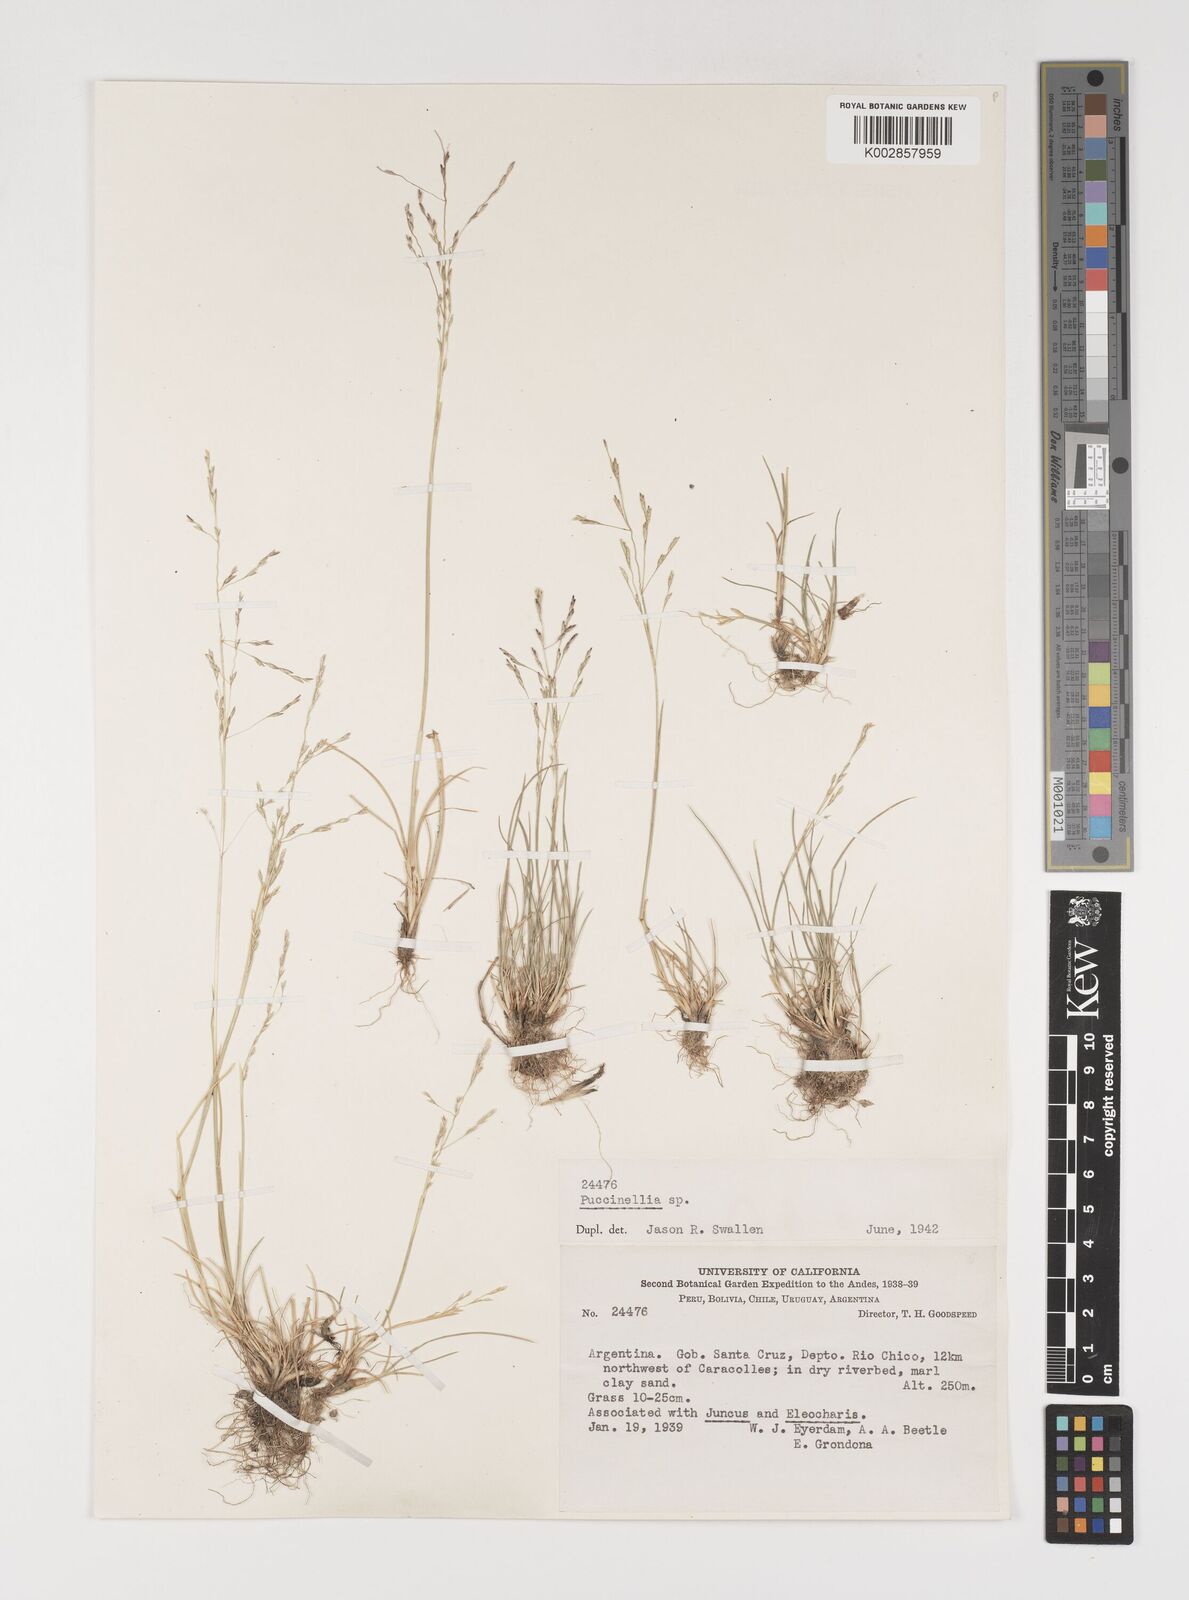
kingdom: Plantae
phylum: Tracheophyta
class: Liliopsida
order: Poales
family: Poaceae
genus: Puccinellia
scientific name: Puccinellia magellanica
